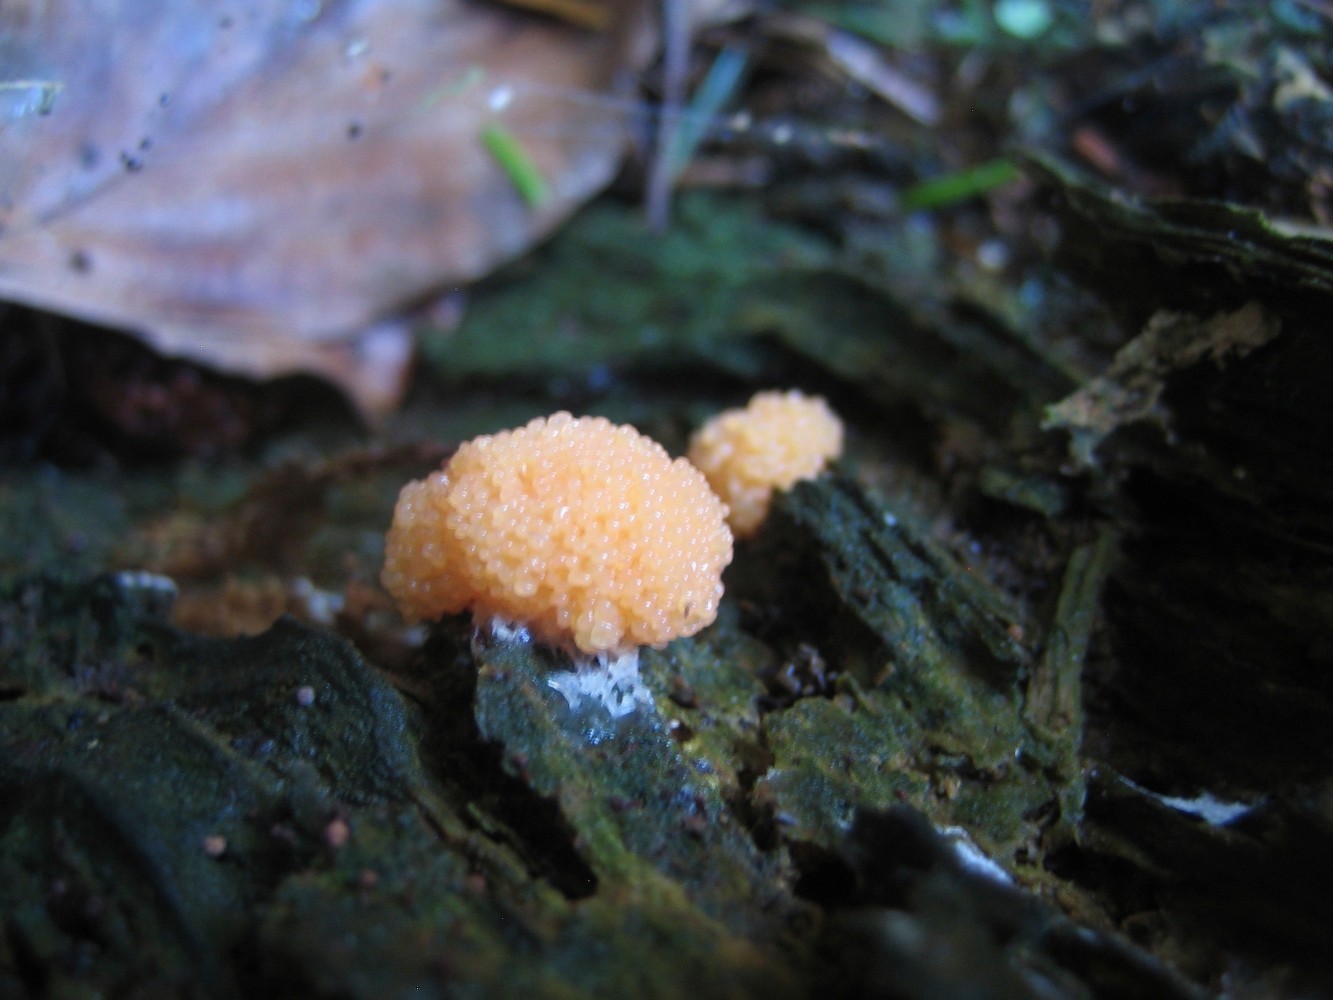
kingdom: Protozoa
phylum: Mycetozoa
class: Myxomycetes
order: Cribrariales
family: Tubiferaceae
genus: Tubifera
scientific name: Tubifera ferruginosa
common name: kanel-støvrør
